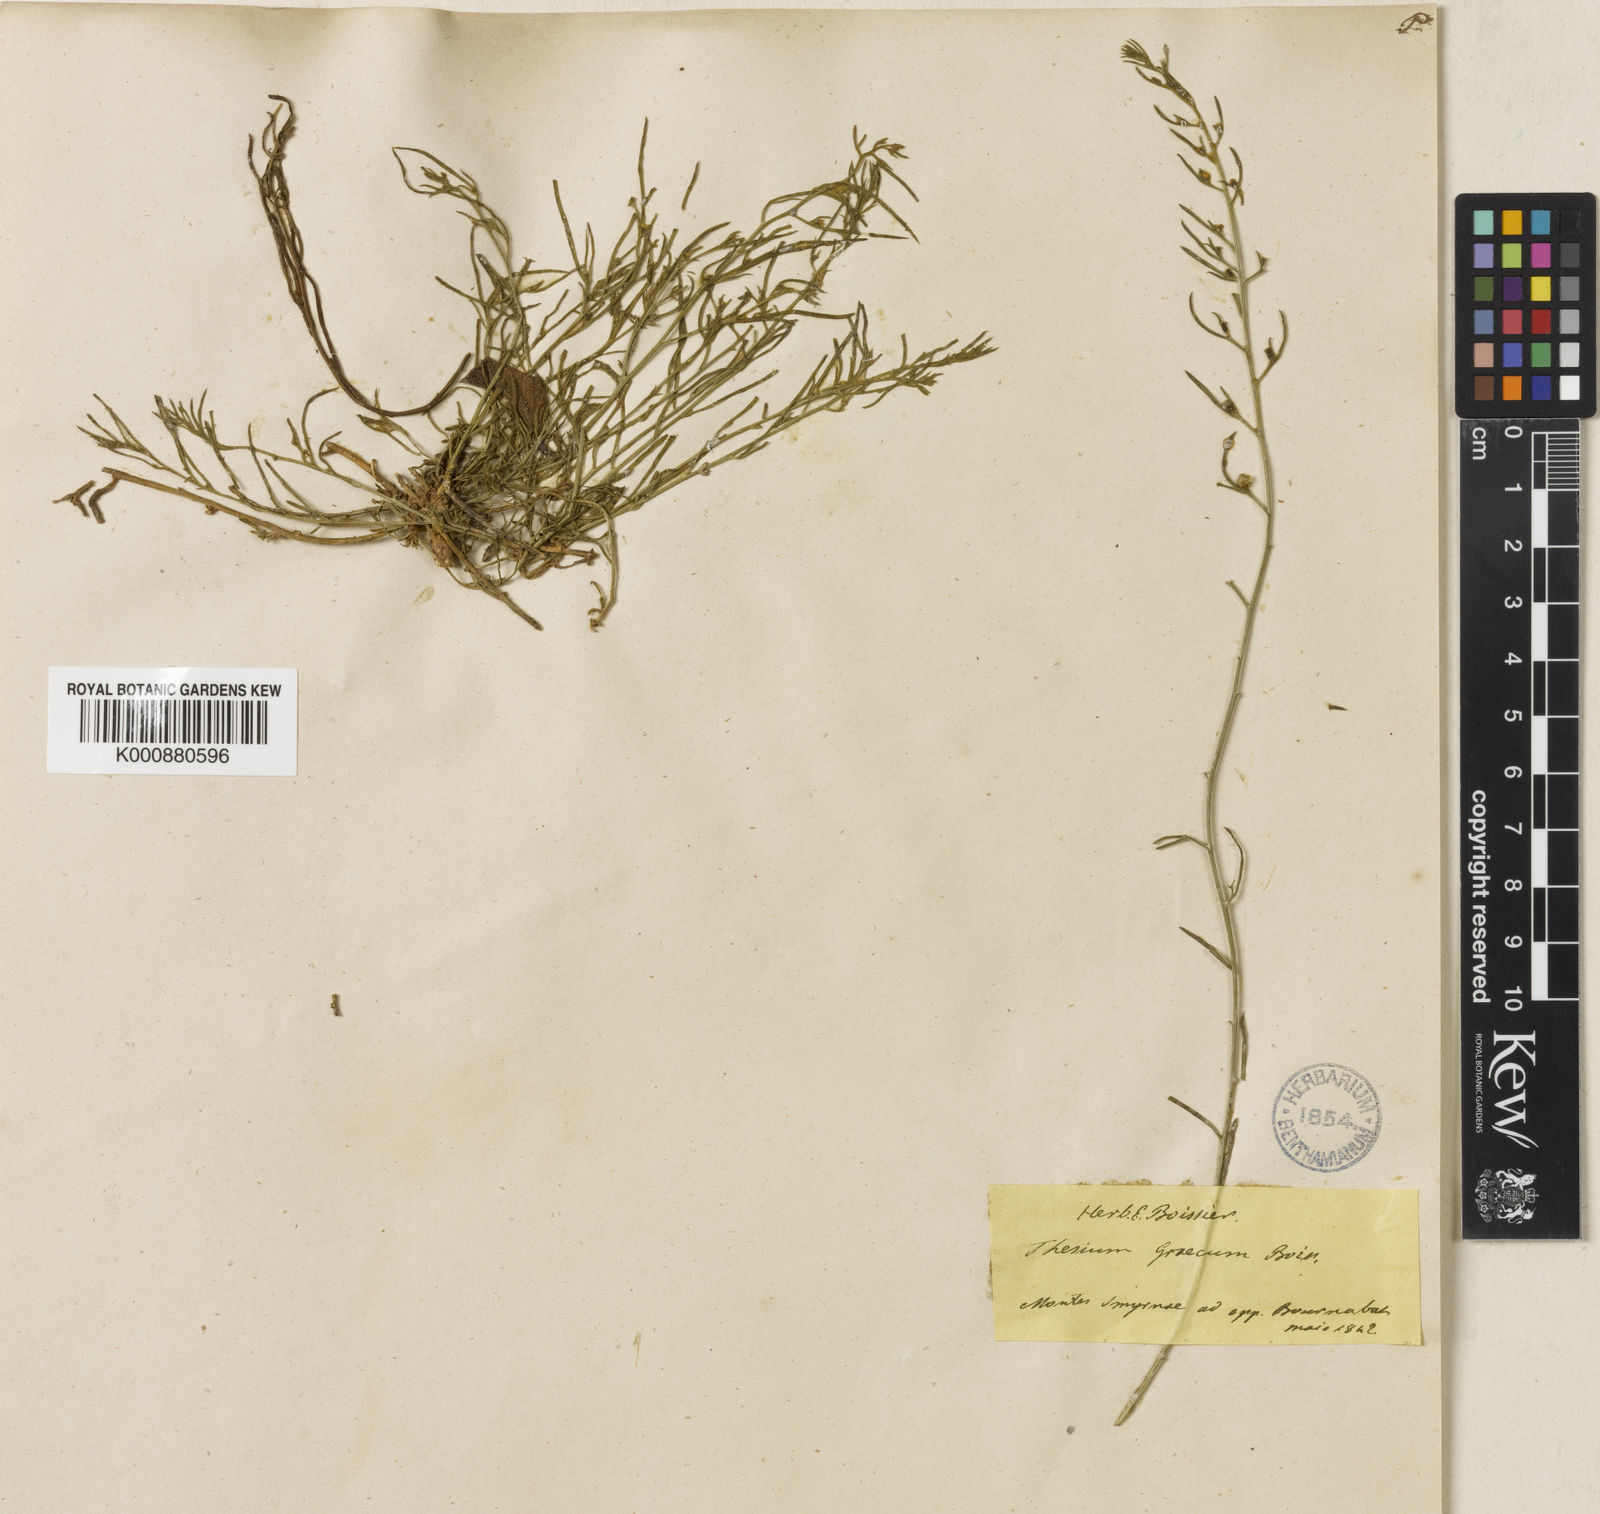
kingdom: Plantae
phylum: Tracheophyta
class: Magnoliopsida
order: Santalales
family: Thesiaceae
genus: Thesium
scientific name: Thesium bergeri
